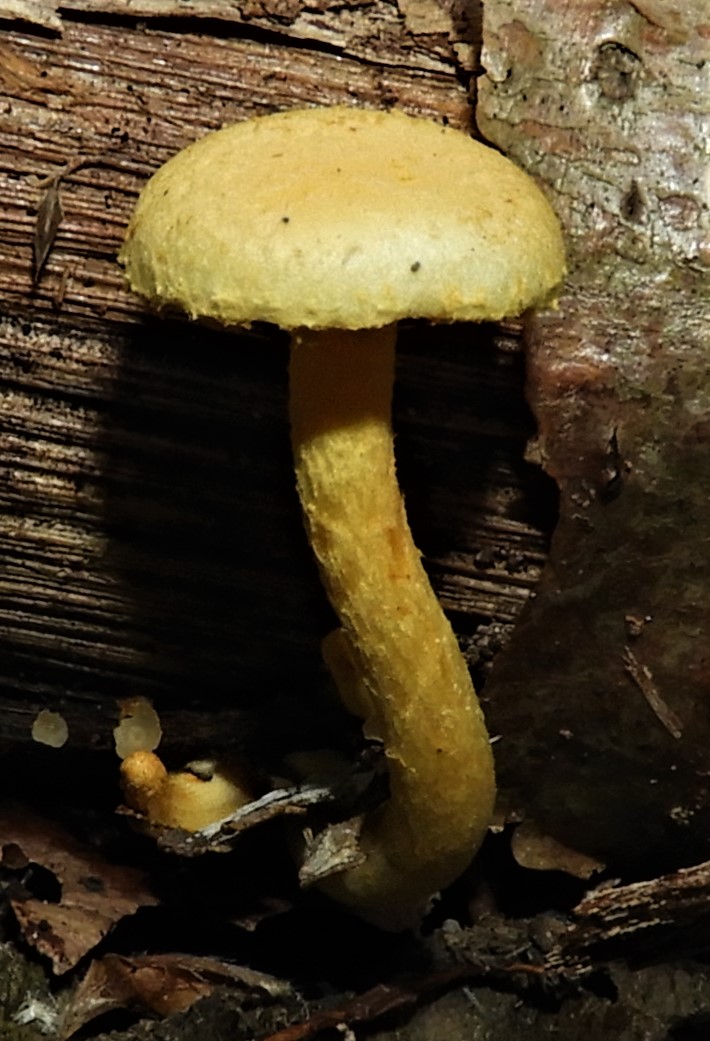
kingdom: Fungi
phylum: Basidiomycota
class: Agaricomycetes
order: Agaricales
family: Strophariaceae
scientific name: Strophariaceae
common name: bredbladfamilien
